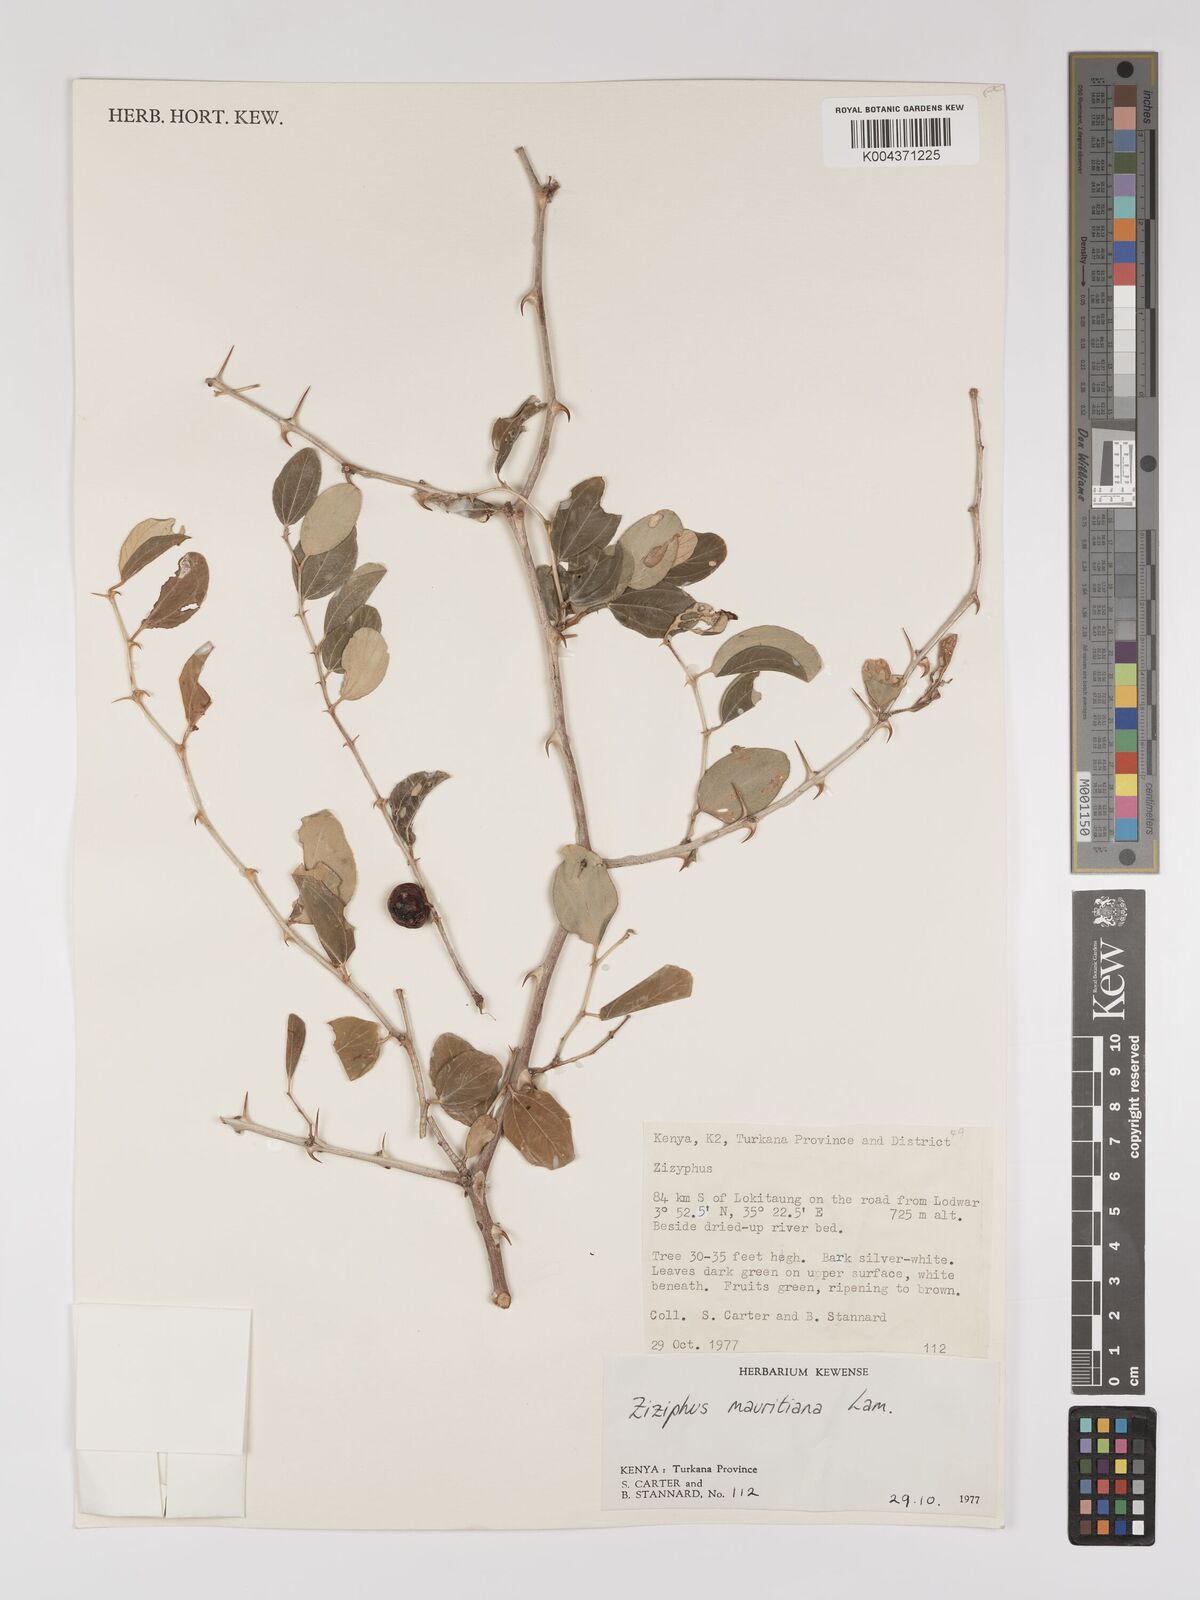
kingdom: Plantae
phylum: Tracheophyta
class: Magnoliopsida
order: Rosales
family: Rhamnaceae
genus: Ziziphus
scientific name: Ziziphus mauritiana
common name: Indian jujube
